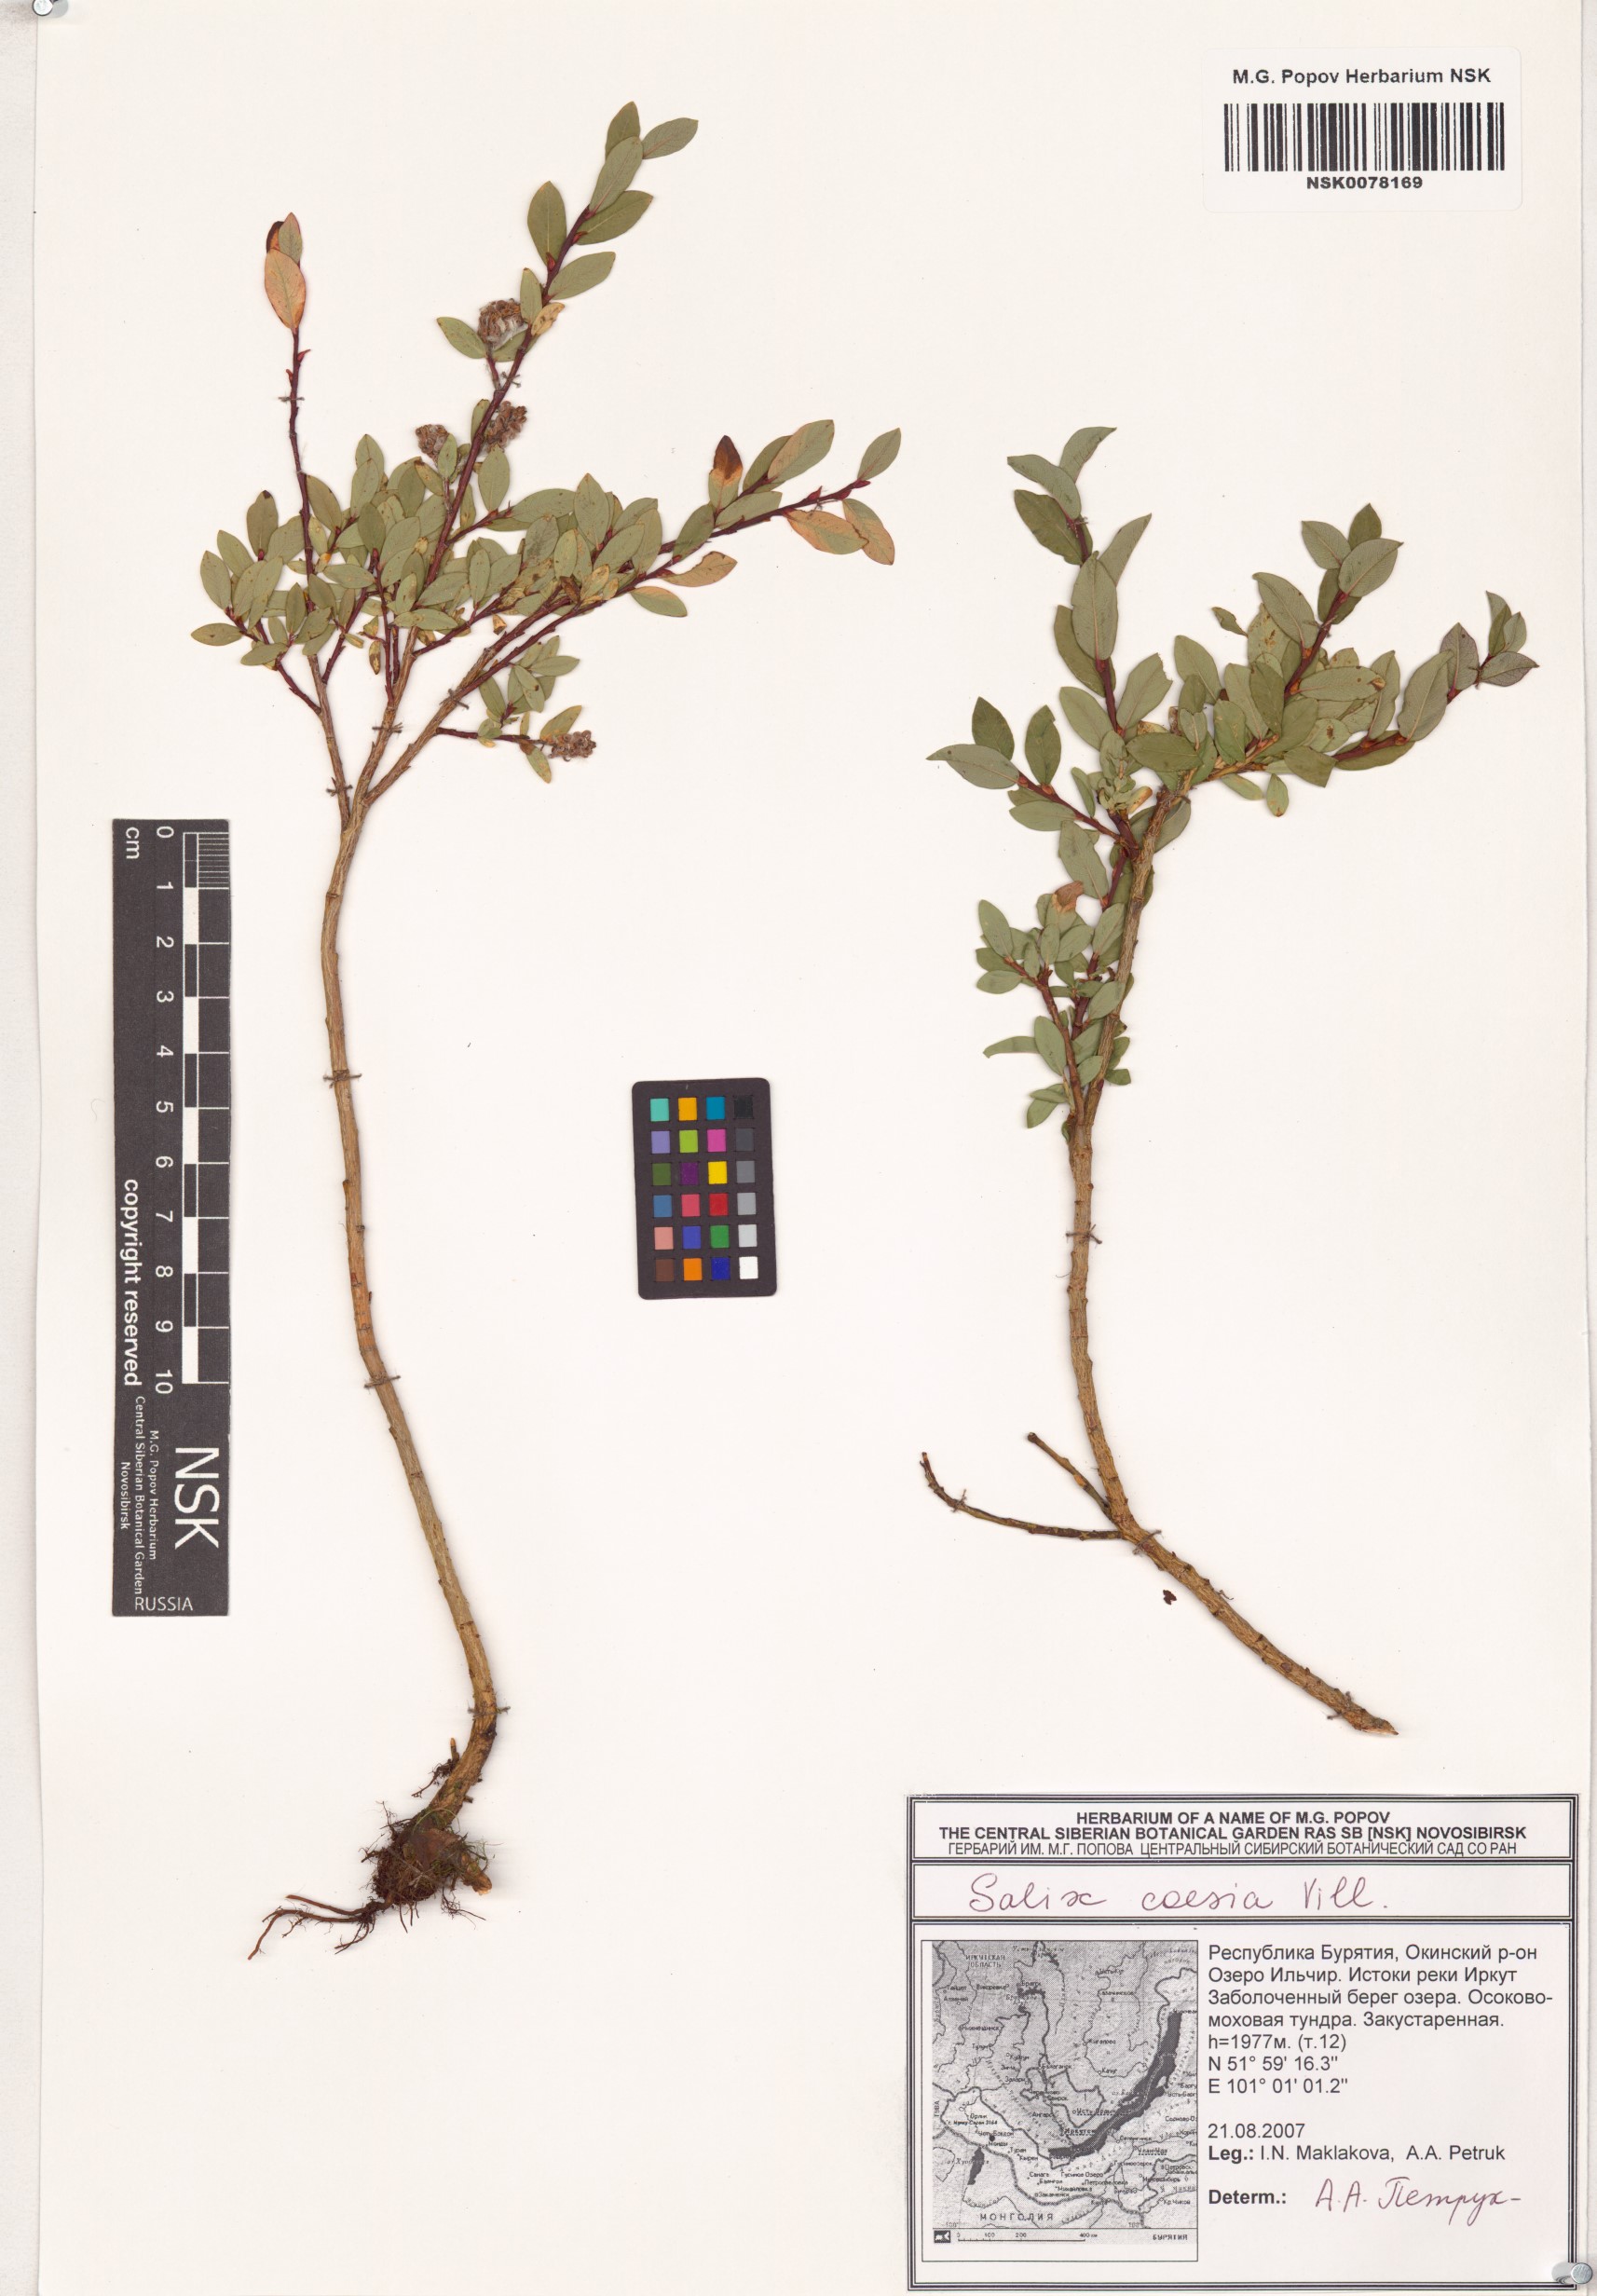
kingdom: Plantae
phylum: Tracheophyta
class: Magnoliopsida
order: Malpighiales
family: Salicaceae
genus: Salix
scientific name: Salix caesia
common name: Blue willow
